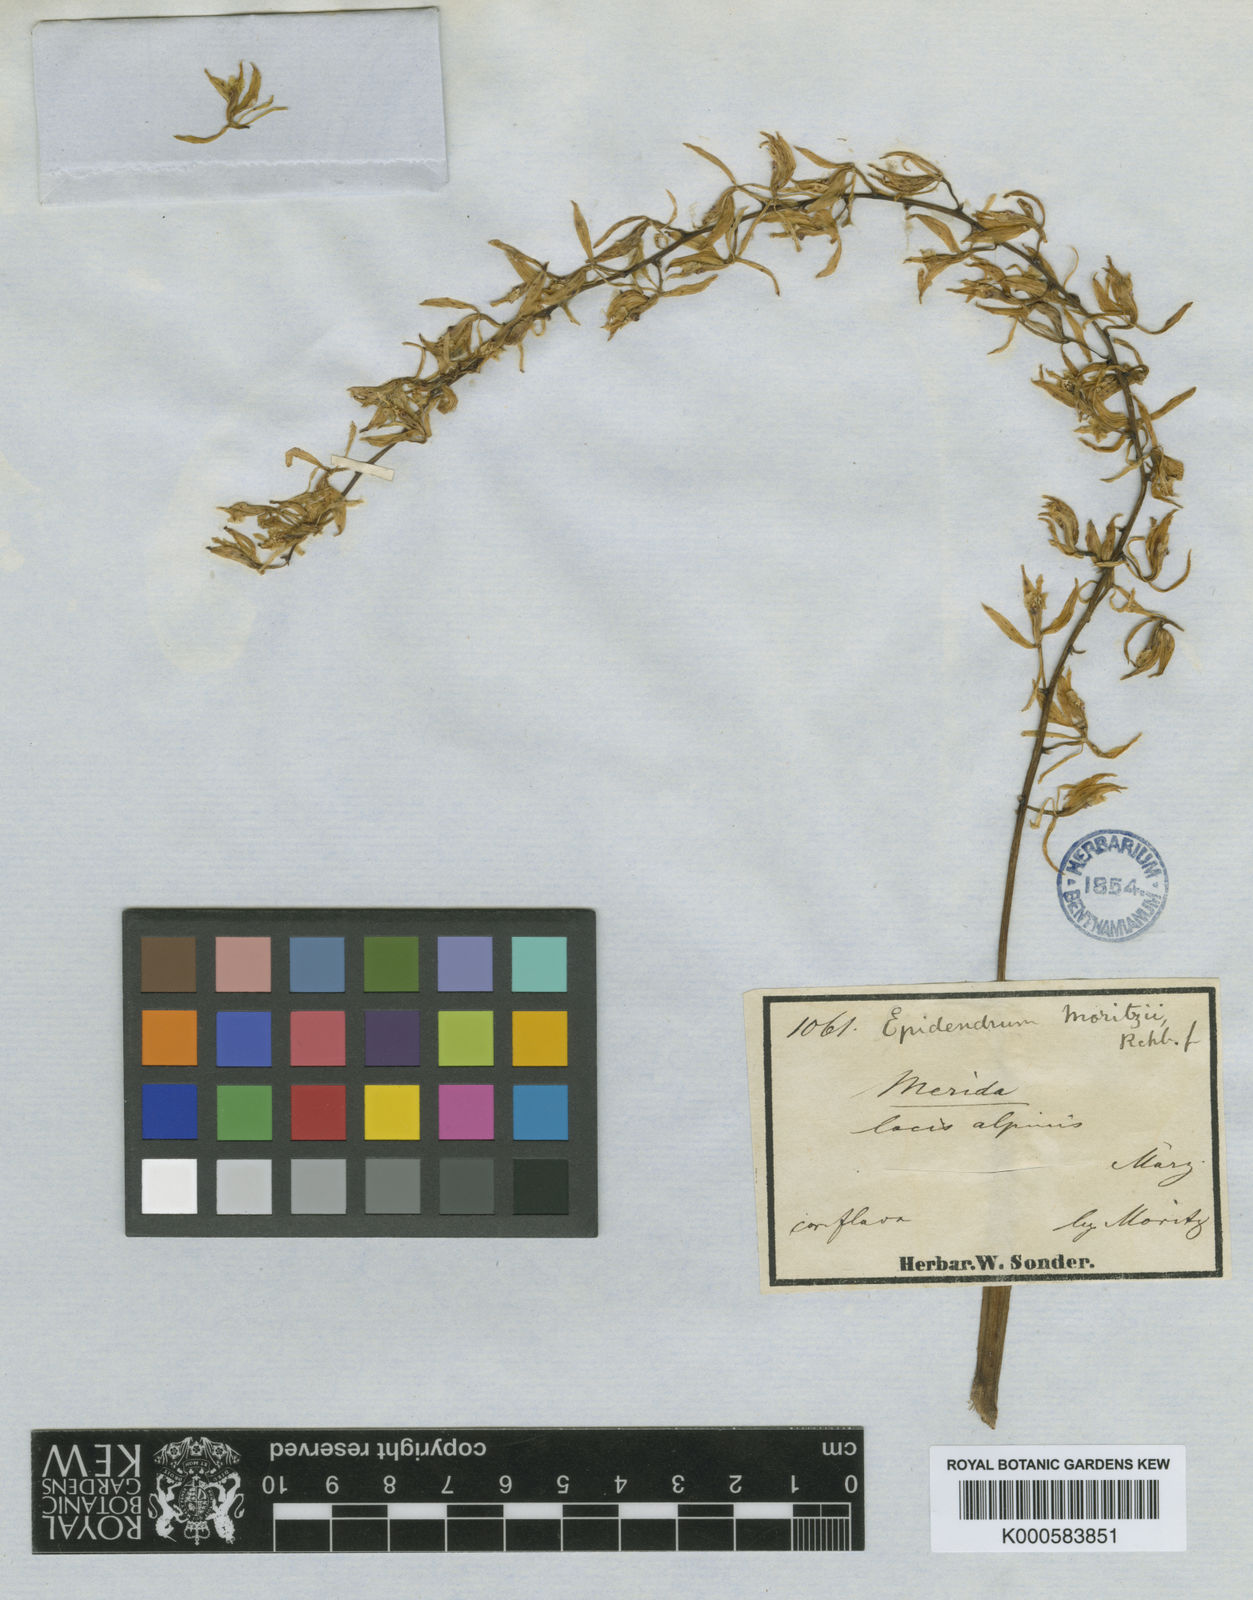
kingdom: Plantae
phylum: Tracheophyta
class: Liliopsida
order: Asparagales
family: Orchidaceae
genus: Epidendrum
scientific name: Epidendrum moritzii
